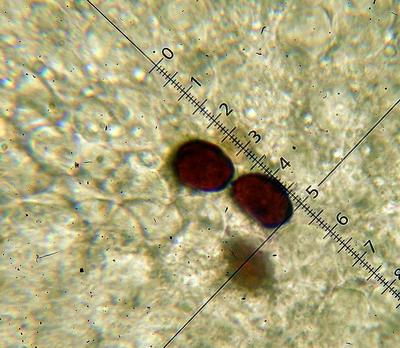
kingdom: Fungi
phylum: Basidiomycota
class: Agaricomycetes
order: Agaricales
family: Psathyrellaceae
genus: Coprinopsis
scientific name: Coprinopsis nivea
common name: snehvid blækhat
